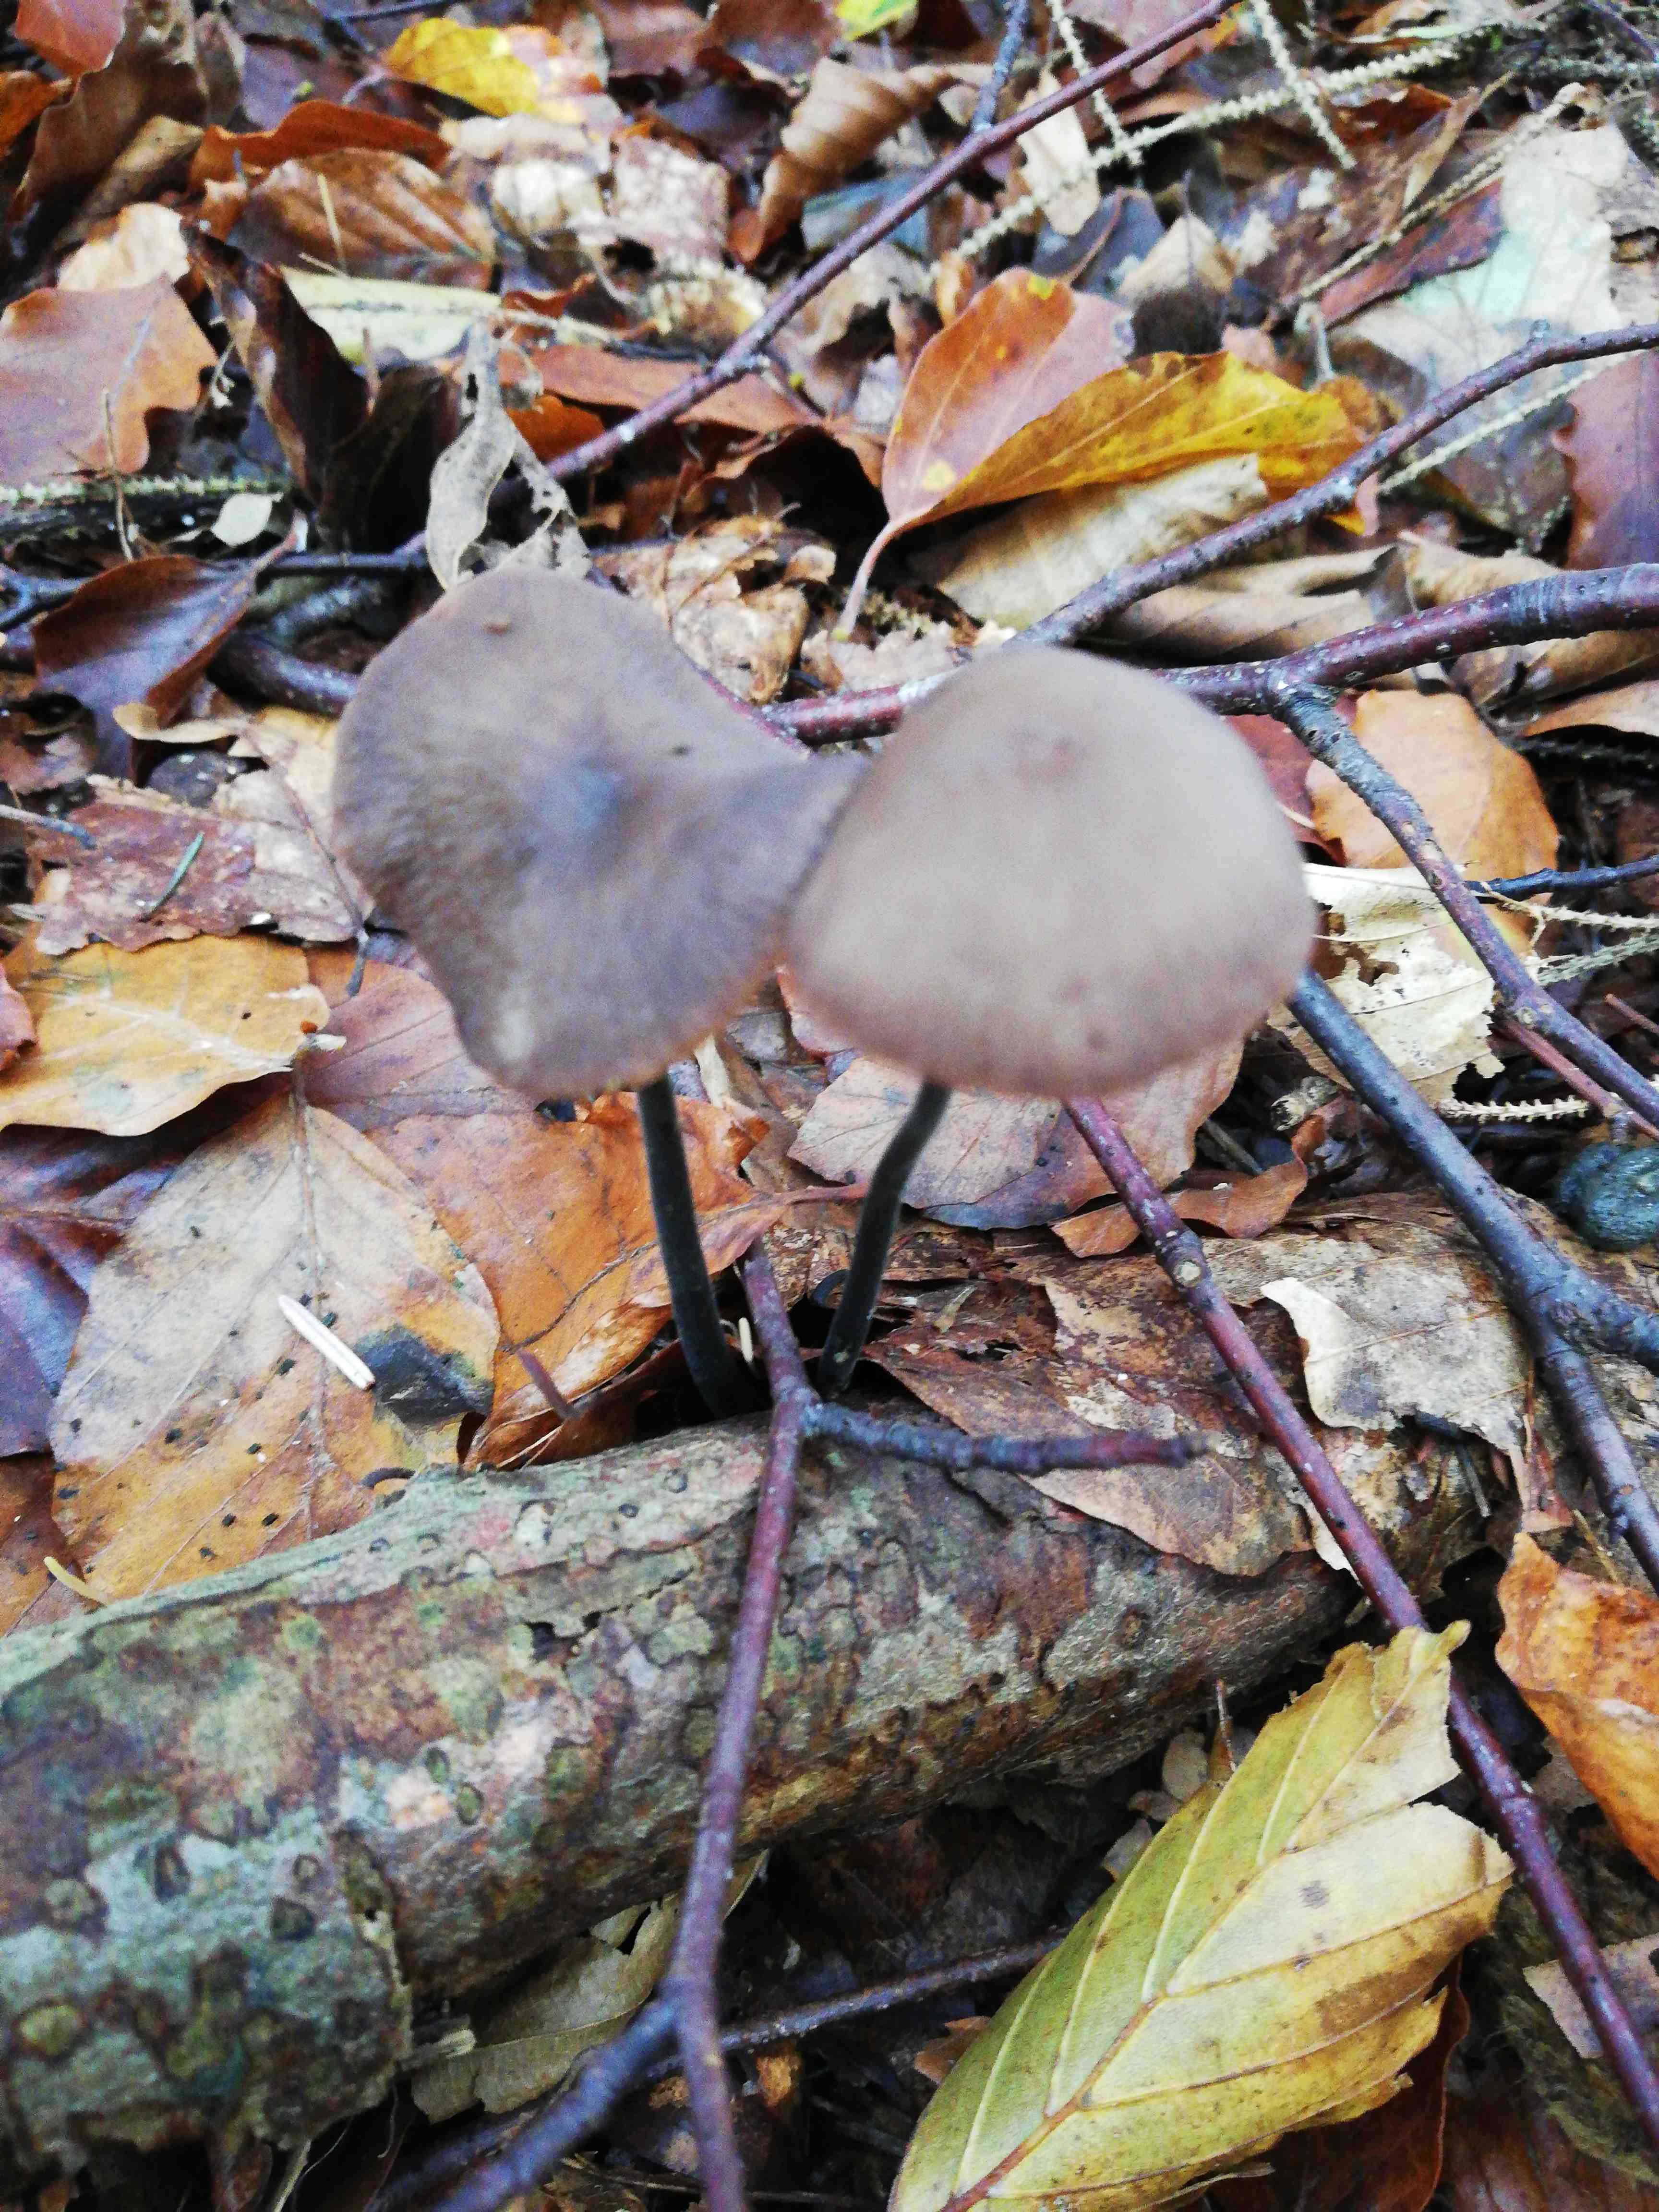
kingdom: Fungi
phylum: Basidiomycota
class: Agaricomycetes
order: Agaricales
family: Omphalotaceae
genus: Mycetinis
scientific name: Mycetinis alliaceus
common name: stor løghat
